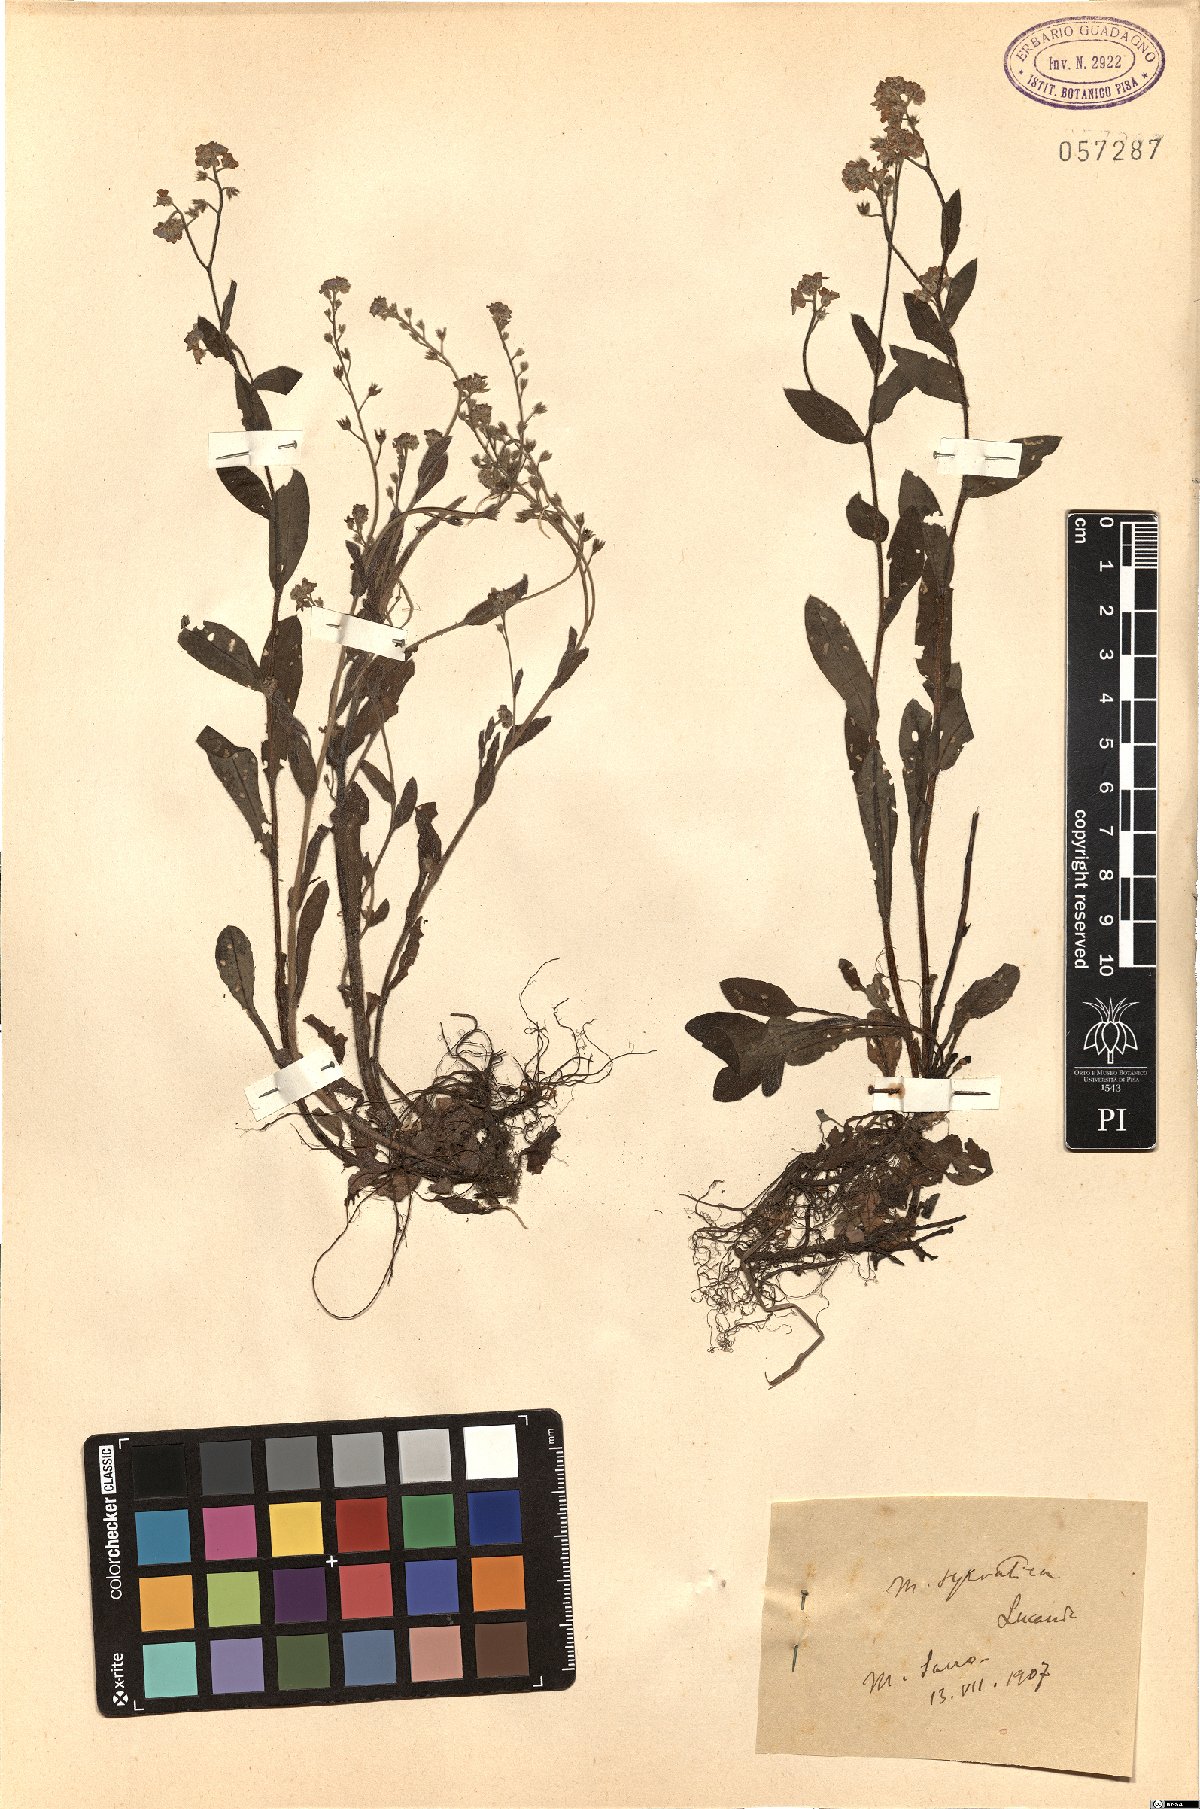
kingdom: Plantae
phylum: Tracheophyta
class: Magnoliopsida
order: Boraginales
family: Boraginaceae
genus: Myosotis
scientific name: Myosotis sylvatica
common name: Wood forget-me-not
